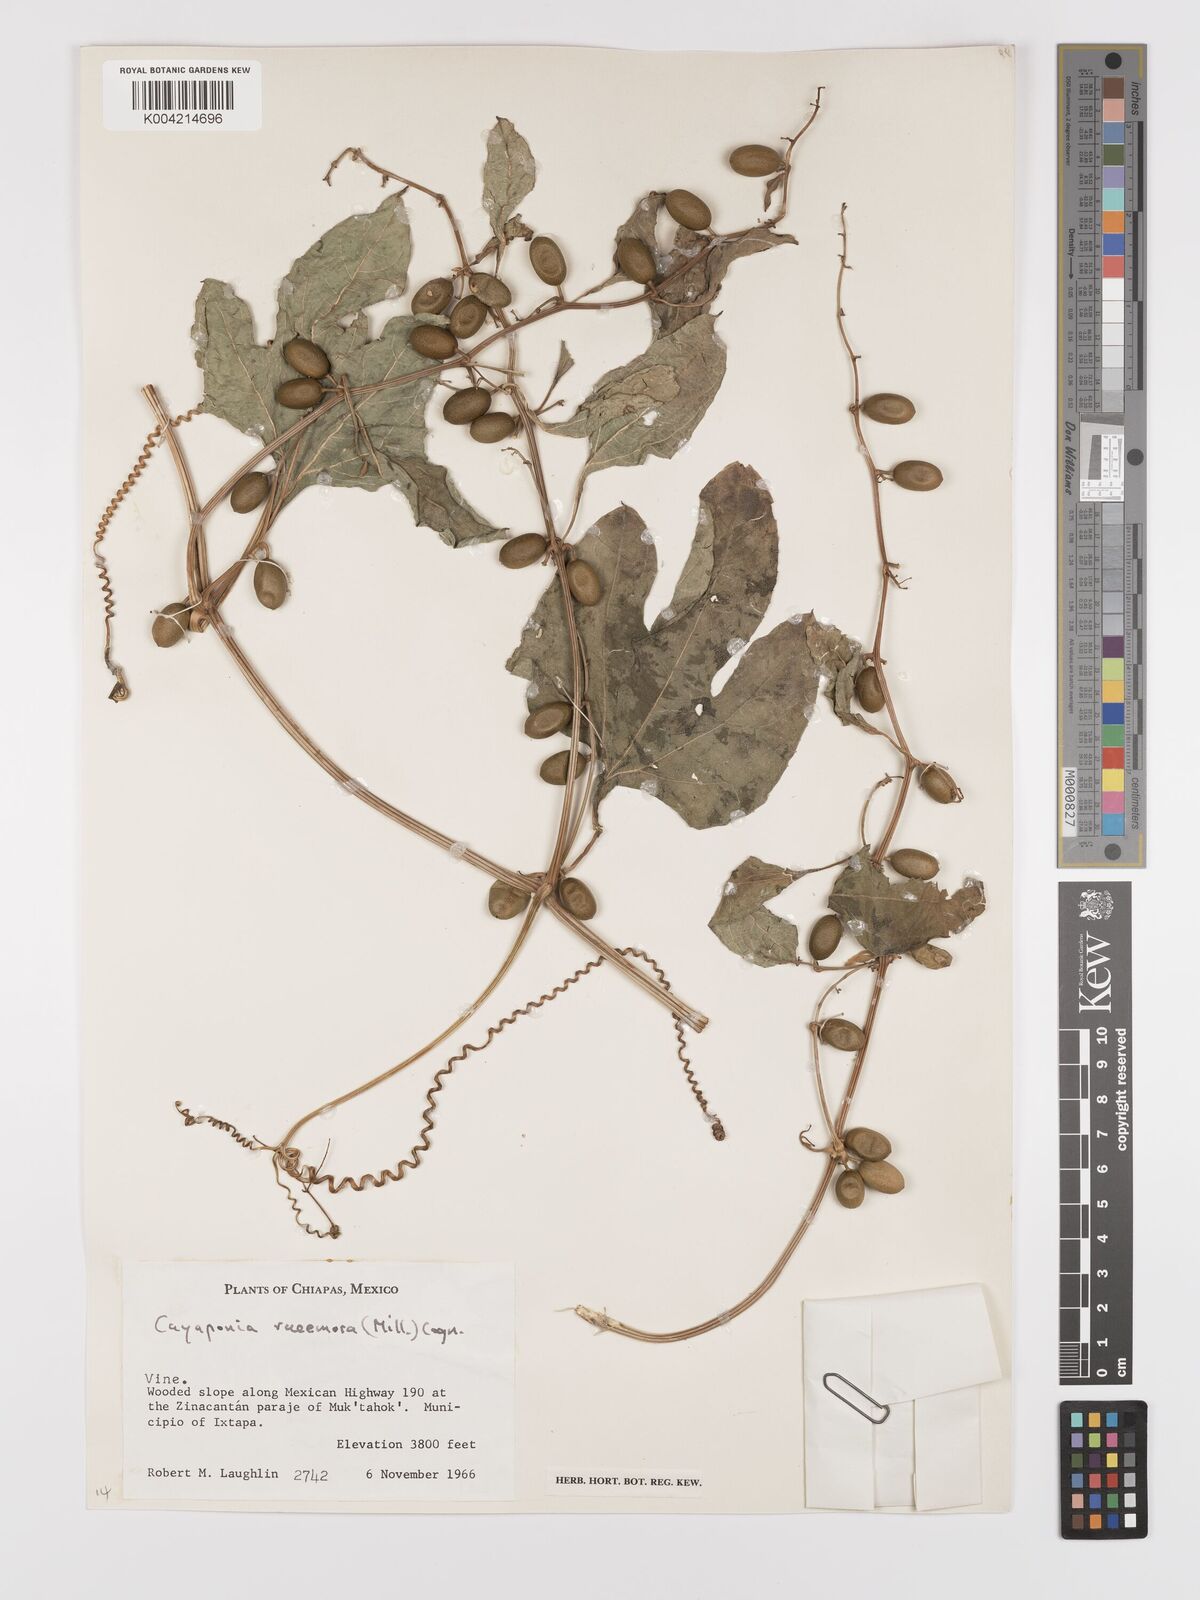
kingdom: Plantae
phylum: Tracheophyta
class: Magnoliopsida
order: Cucurbitales
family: Cucurbitaceae
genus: Cayaponia
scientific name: Cayaponia racemosa
